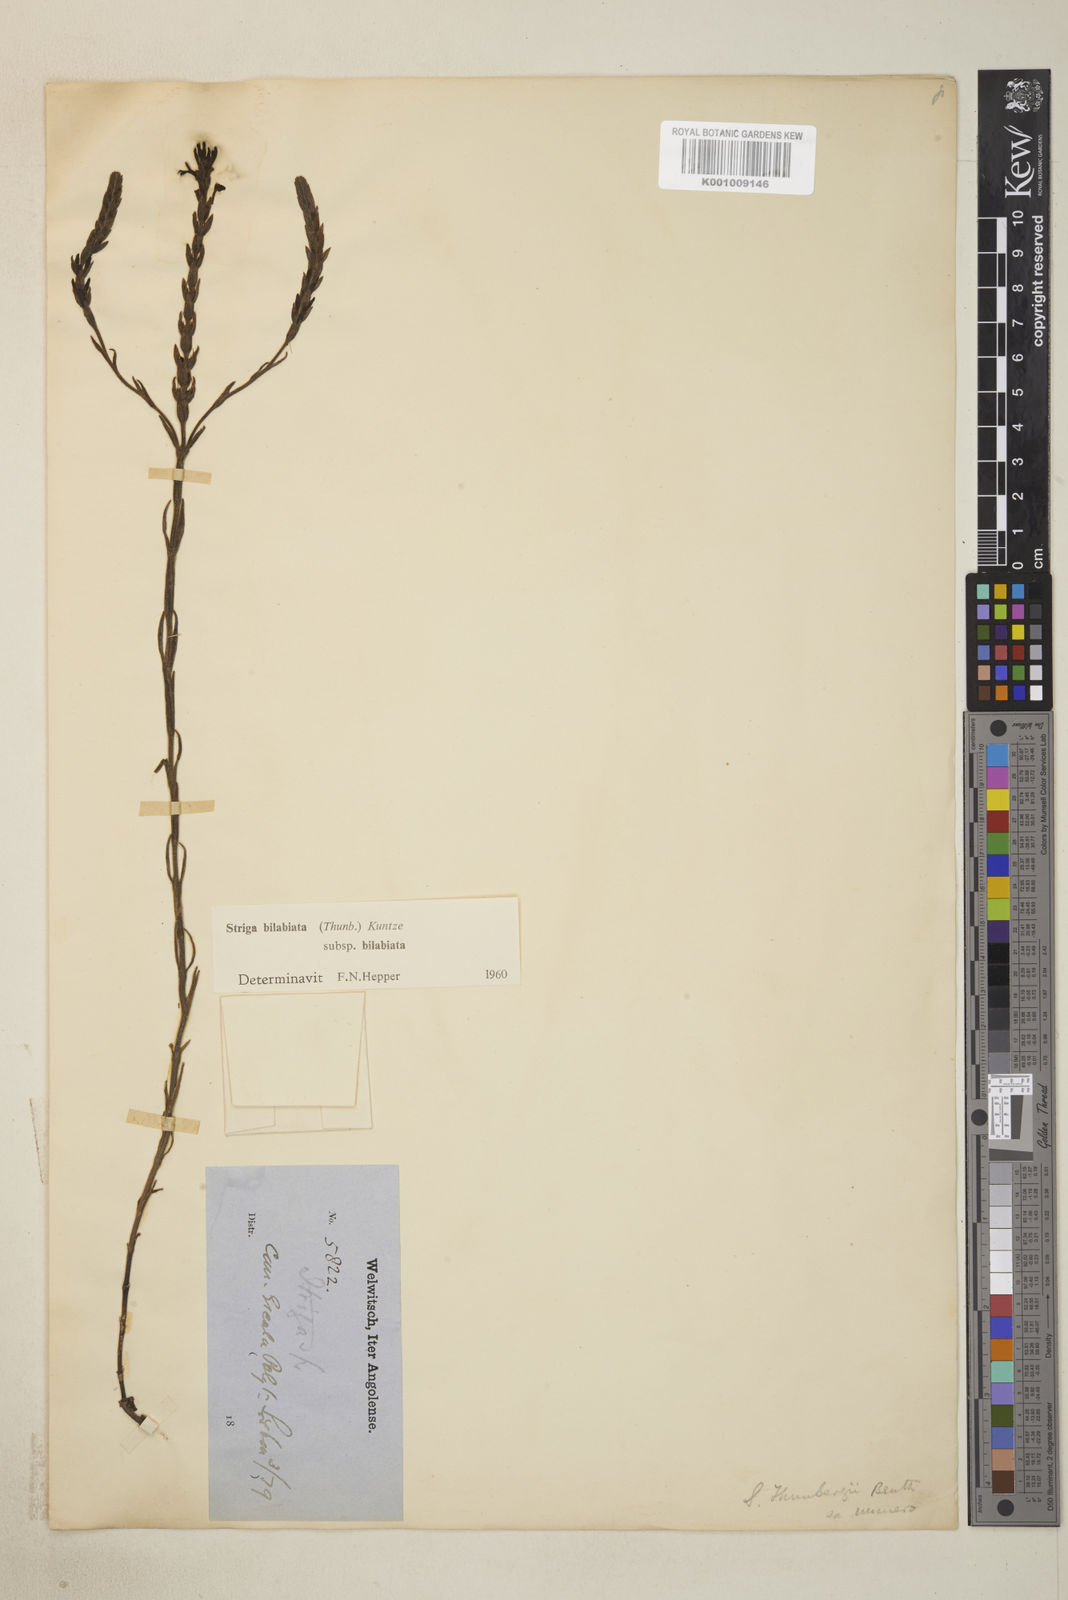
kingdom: Plantae
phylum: Tracheophyta
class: Magnoliopsida
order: Lamiales
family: Orobanchaceae
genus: Striga
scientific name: Striga bilabiata
